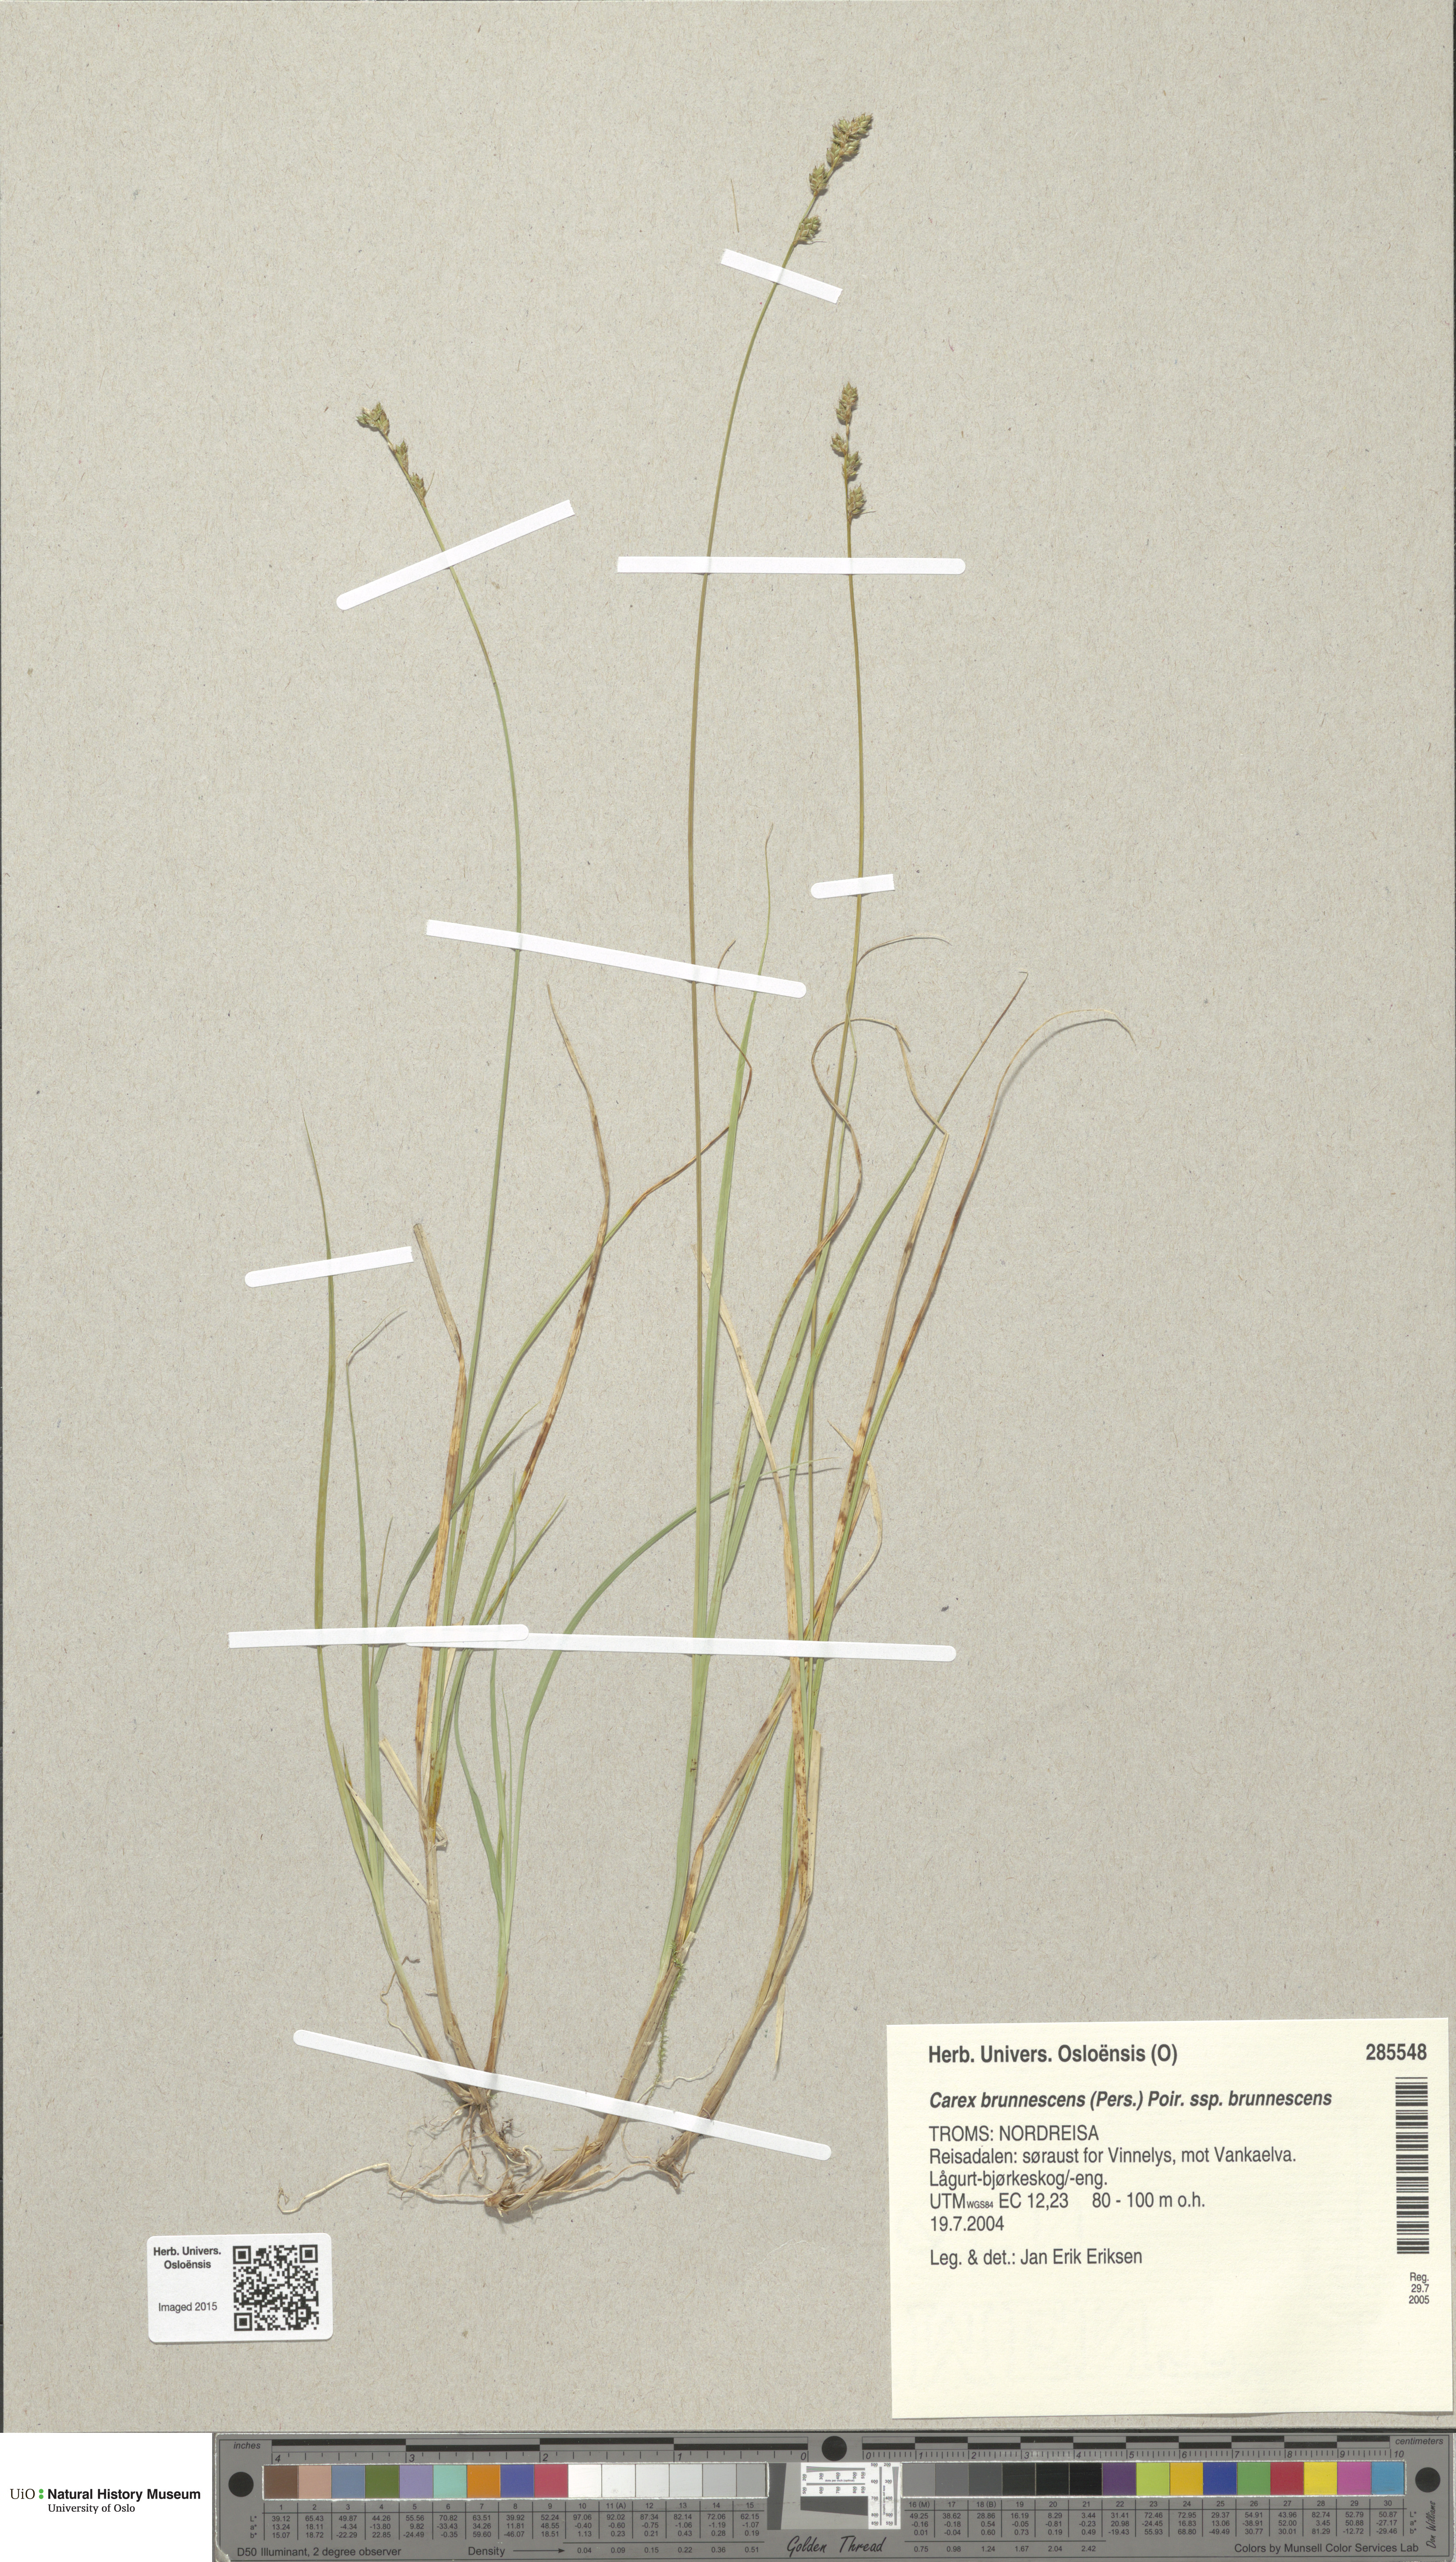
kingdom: Plantae
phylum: Tracheophyta
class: Liliopsida
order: Poales
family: Cyperaceae
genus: Carex
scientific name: Carex brunnescens
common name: Brown sedge
